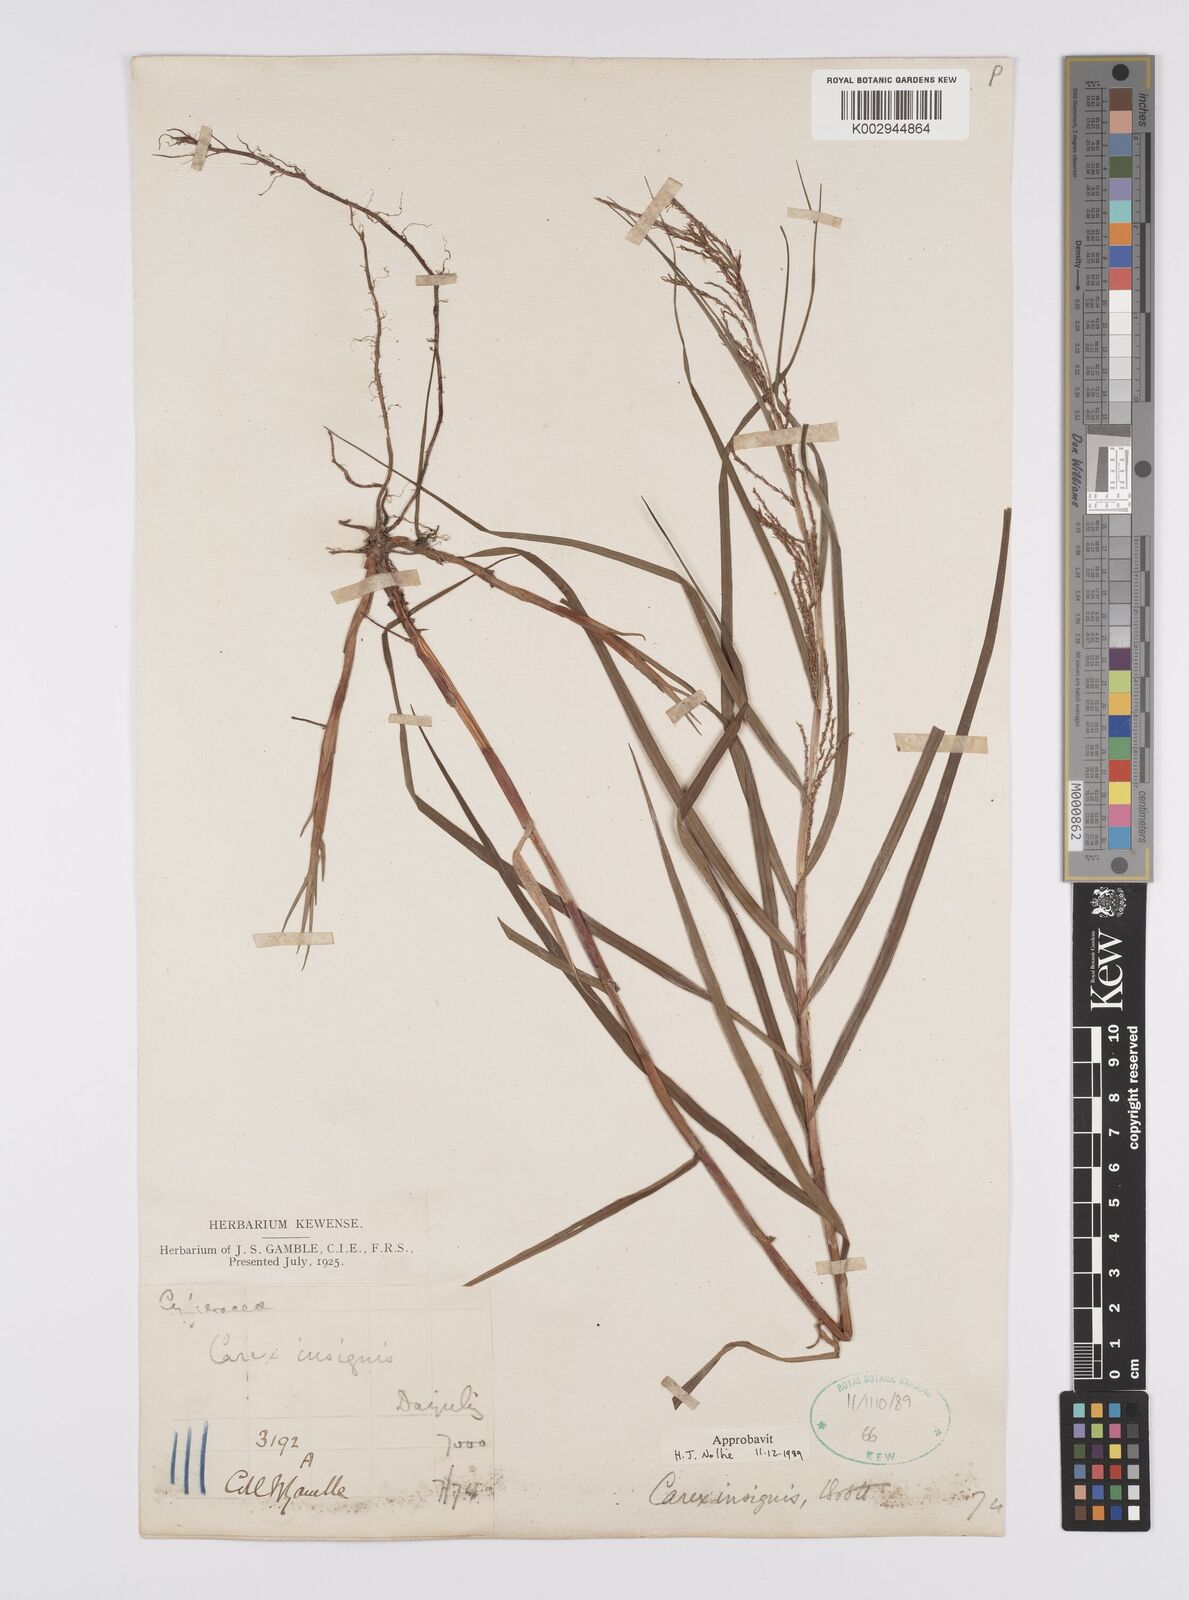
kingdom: Plantae
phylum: Tracheophyta
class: Liliopsida
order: Poales
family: Cyperaceae
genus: Carex
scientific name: Carex insignis
